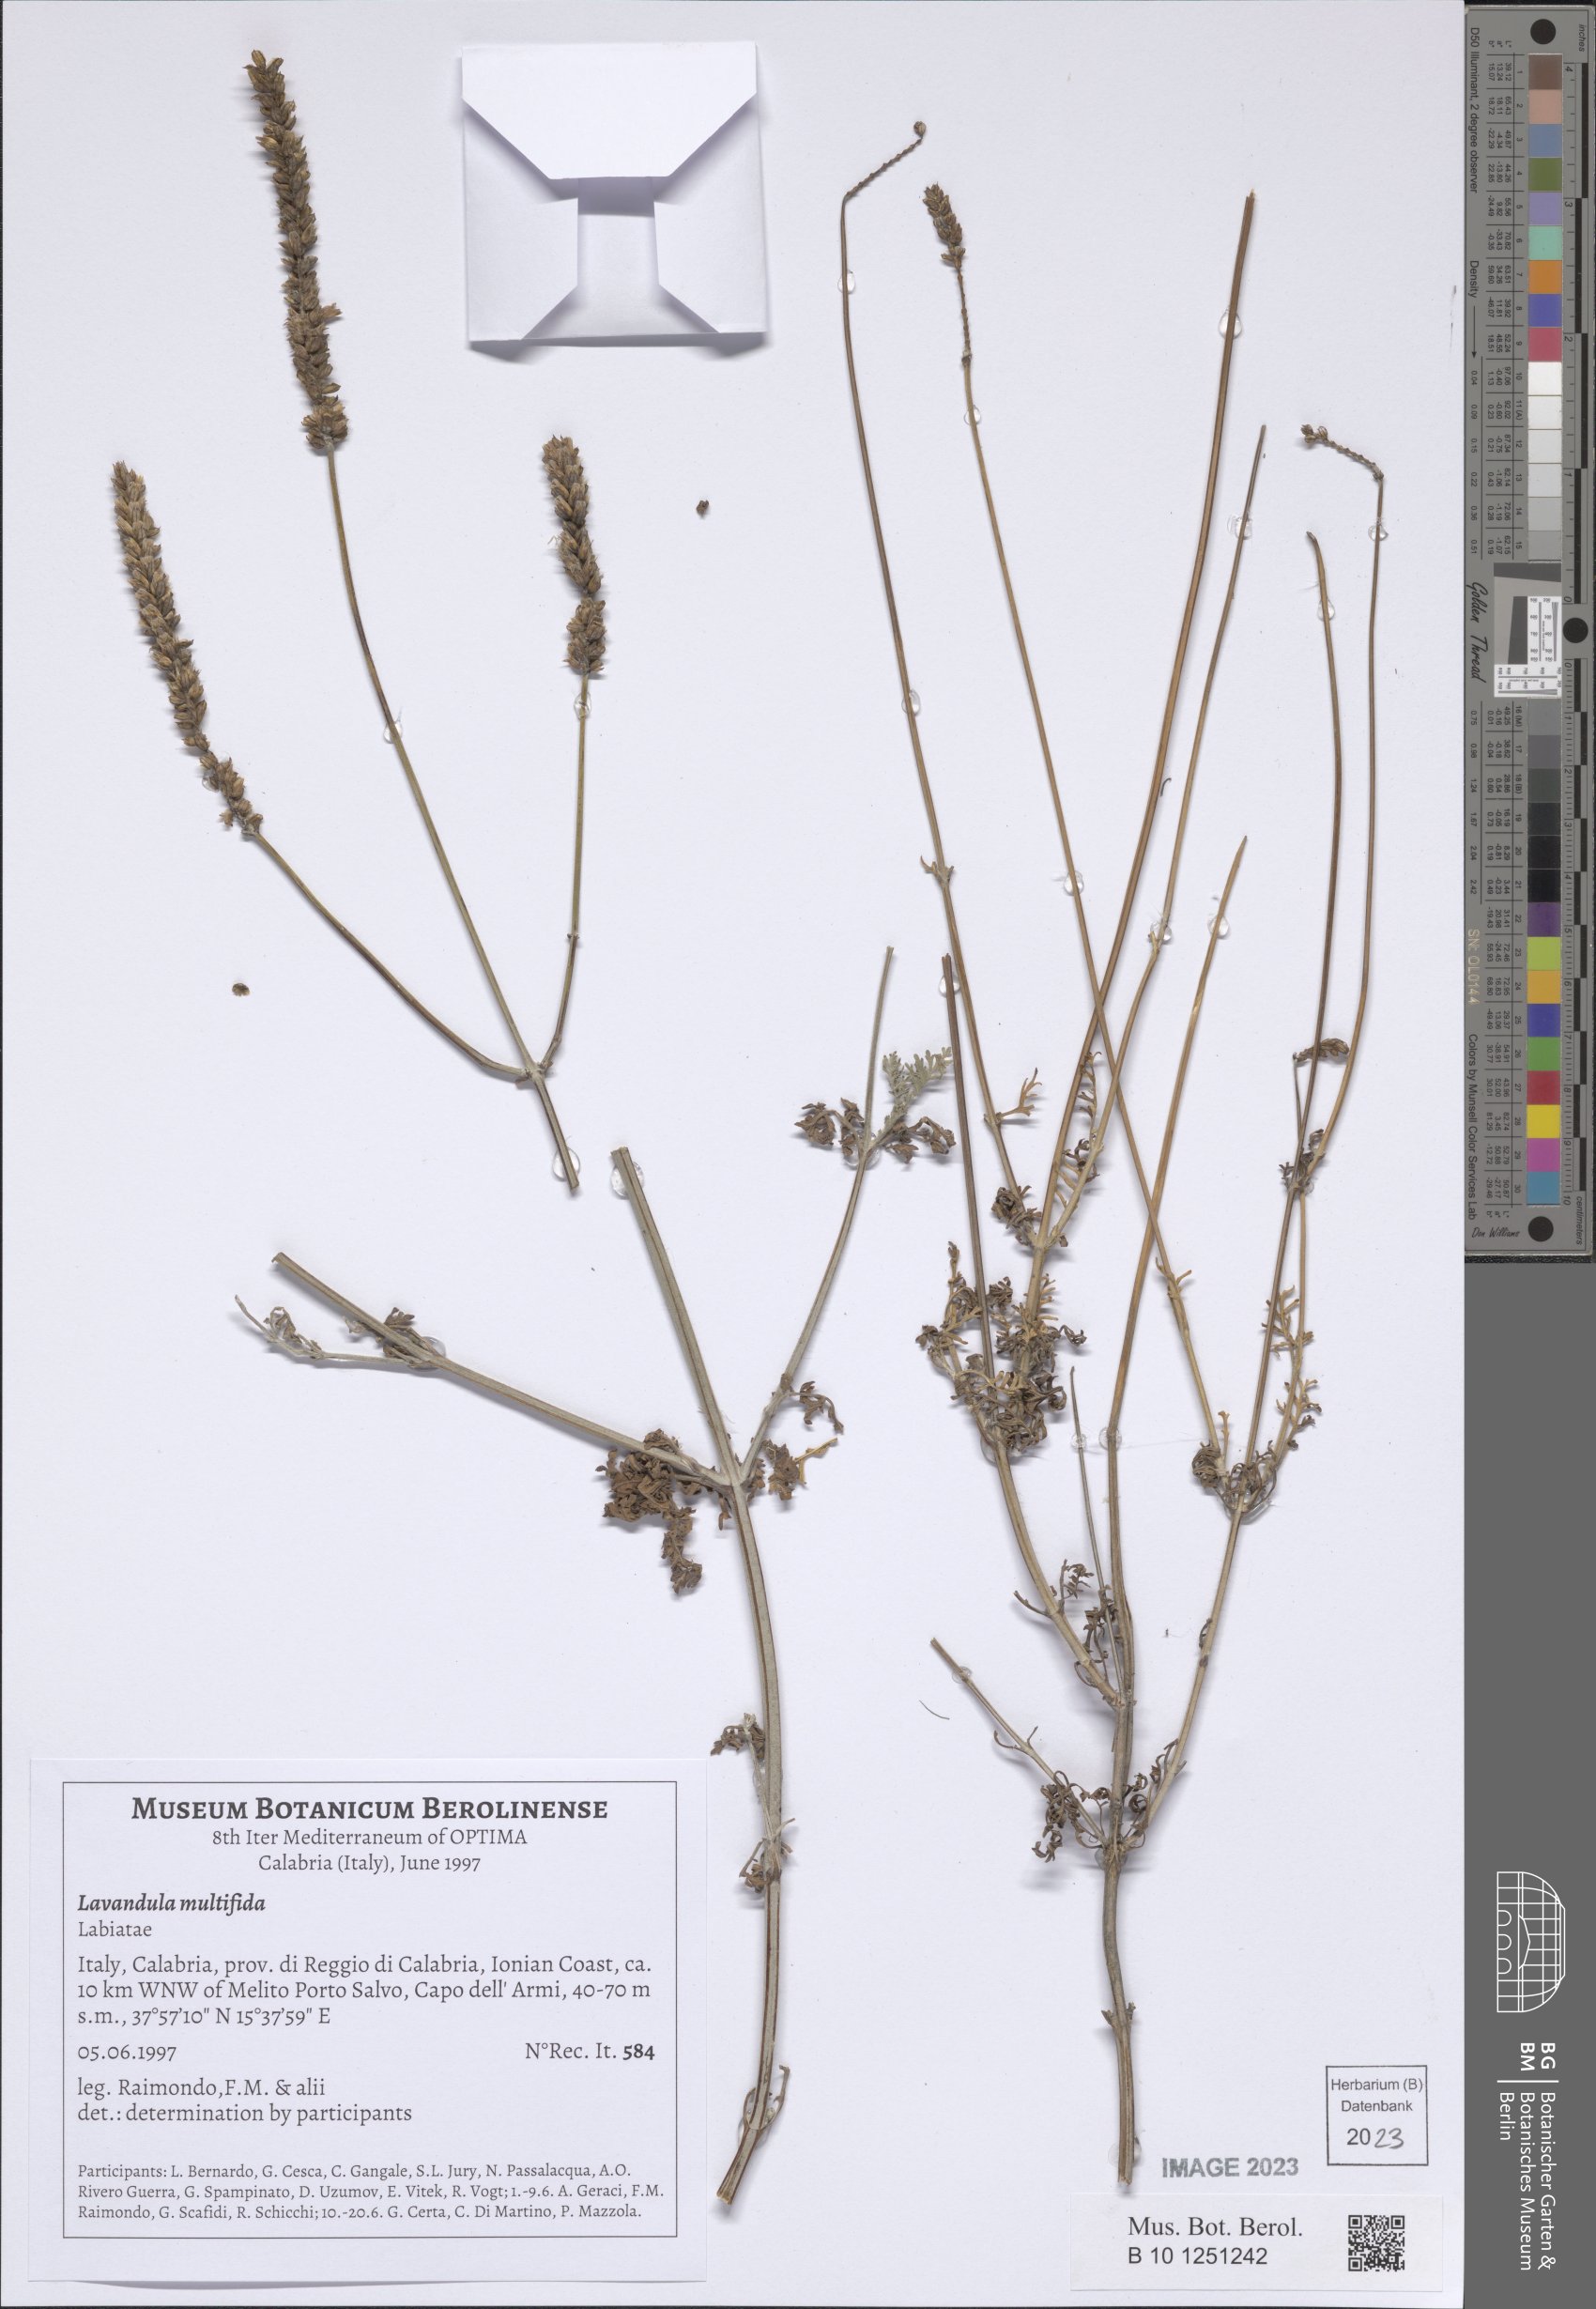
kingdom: Plantae
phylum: Tracheophyta
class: Magnoliopsida
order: Lamiales
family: Lamiaceae
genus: Lavandula
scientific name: Lavandula multifida
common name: Fern-leaf lavender
